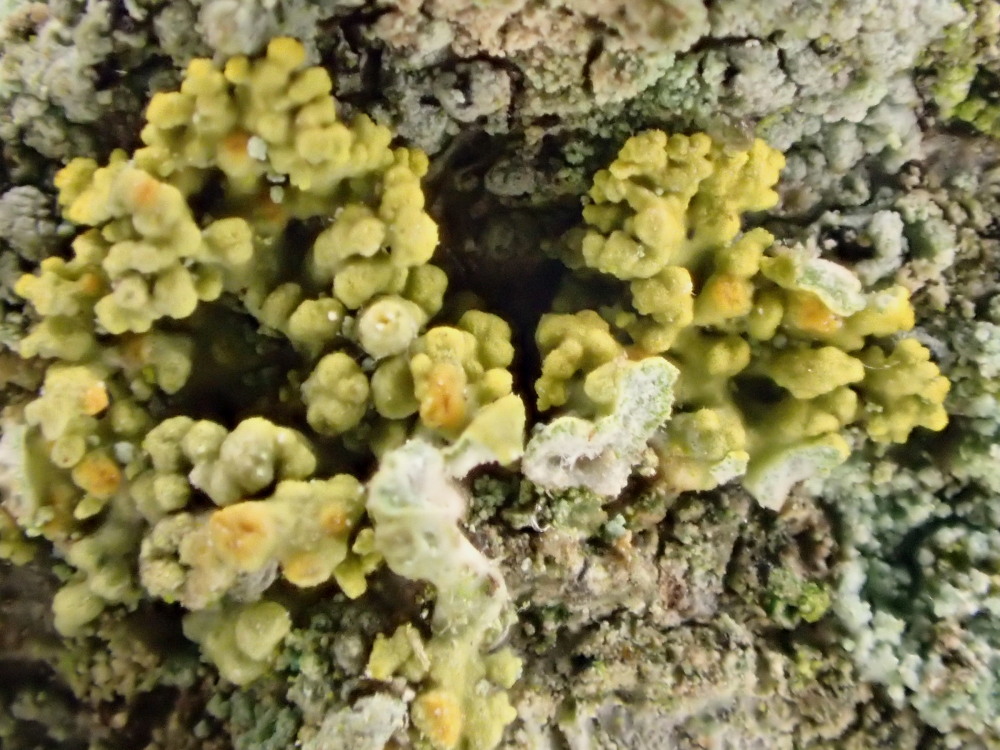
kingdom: Fungi
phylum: Ascomycota
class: Lecanoromycetes
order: Teloschistales
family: Teloschistaceae
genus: Polycauliona
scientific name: Polycauliona polycarpa
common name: mangefrugtet orangelav
